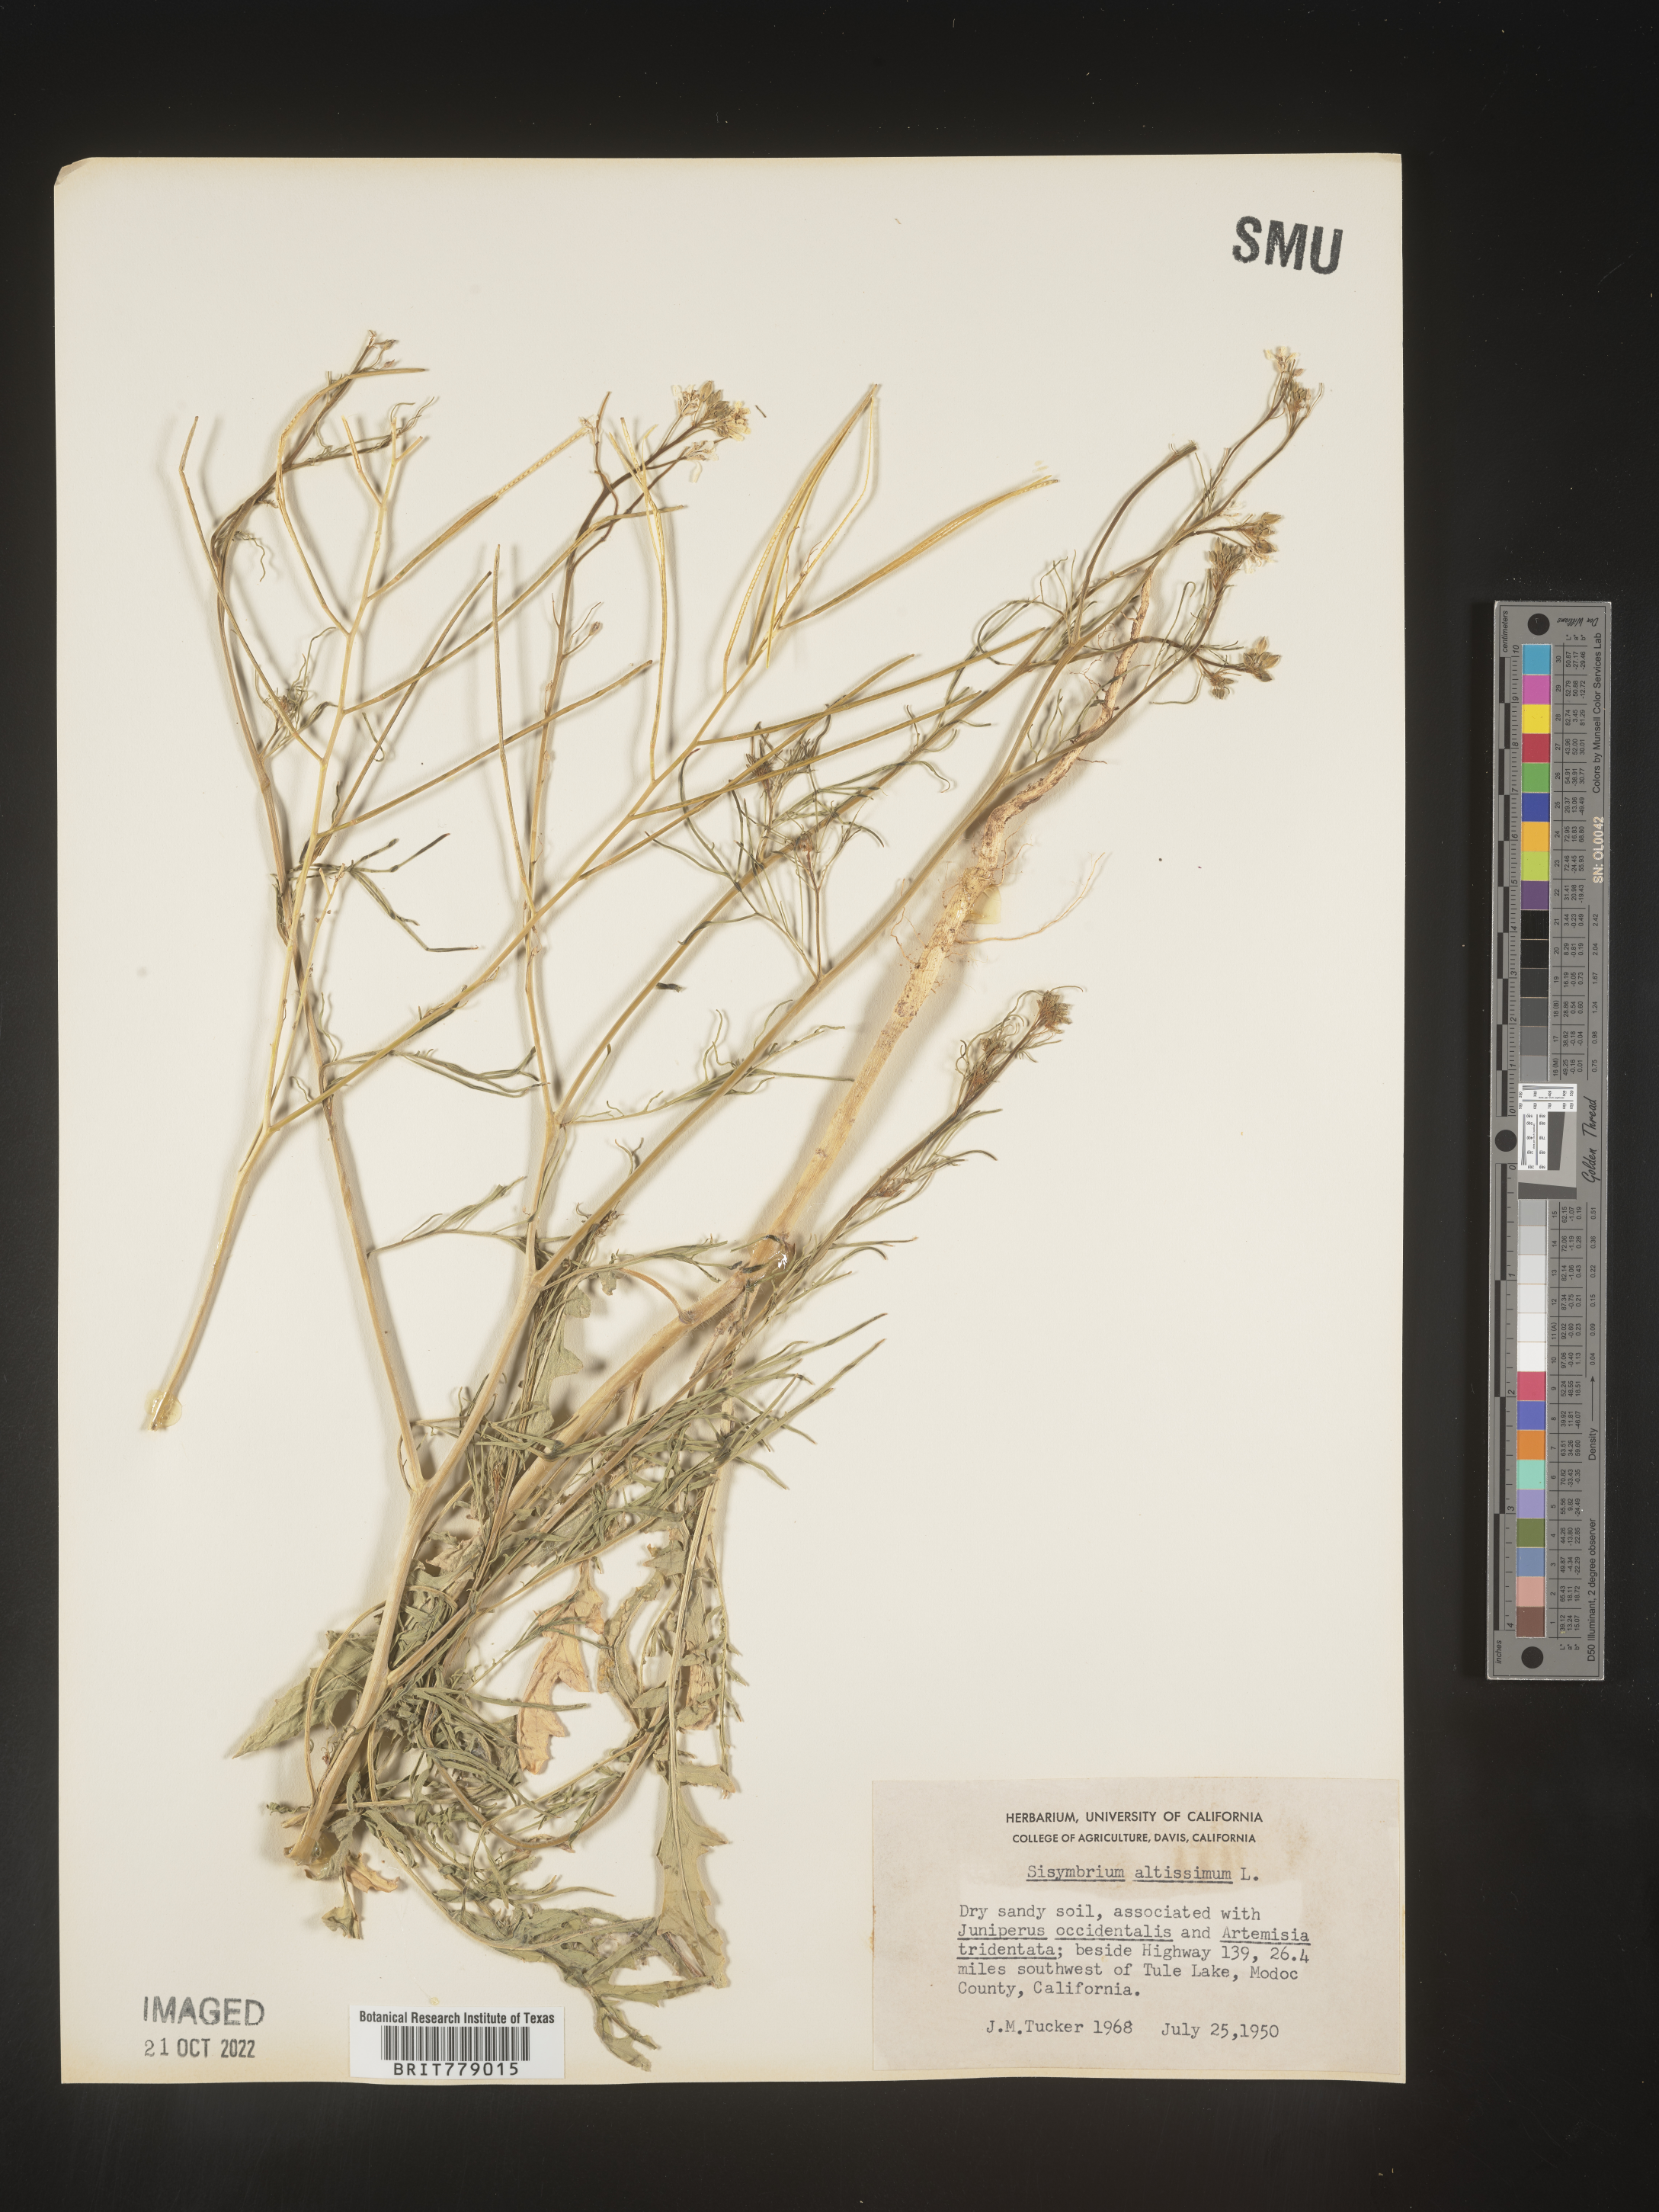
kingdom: Plantae
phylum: Tracheophyta
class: Magnoliopsida
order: Brassicales
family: Brassicaceae
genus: Sisymbrium
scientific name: Sisymbrium altissimum
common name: Tall rocket
